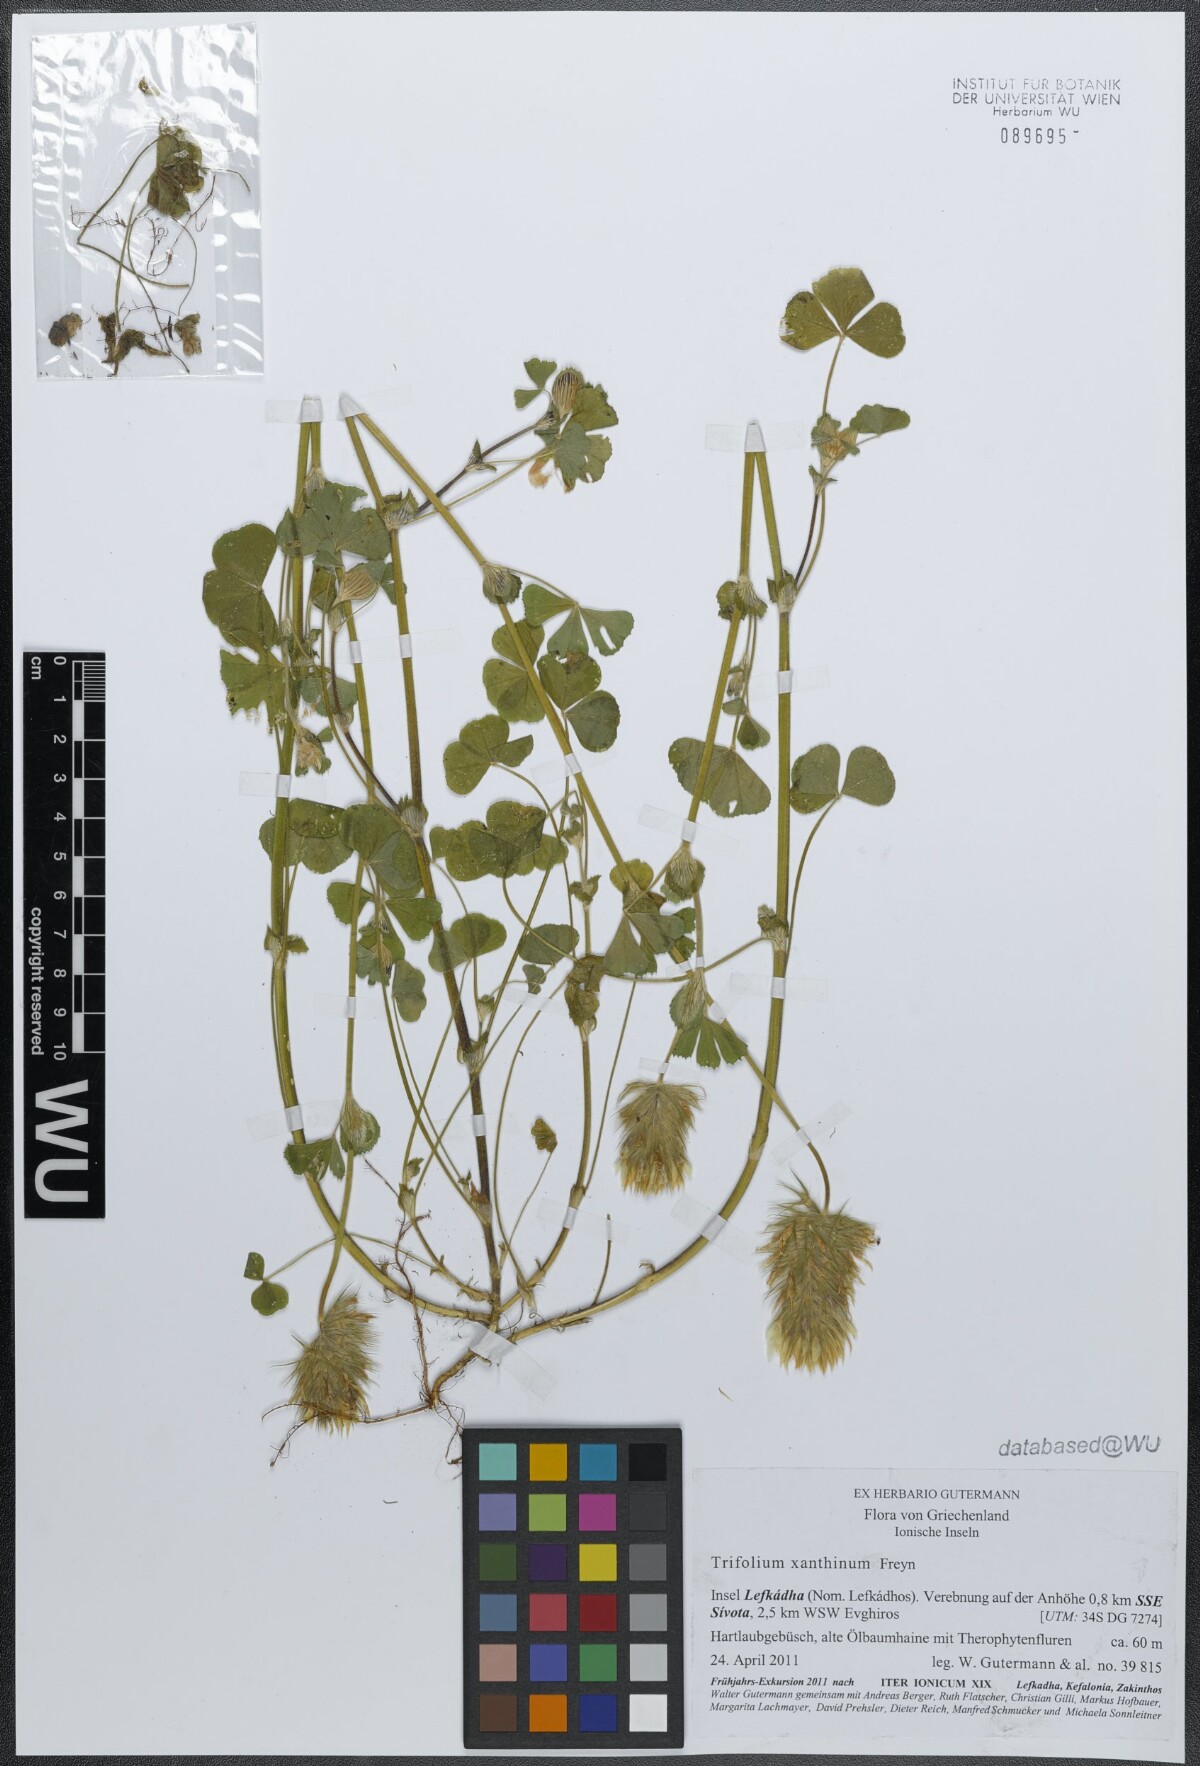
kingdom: Plantae
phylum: Tracheophyta
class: Magnoliopsida
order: Fabales
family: Fabaceae
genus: Trifolium
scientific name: Trifolium xanthinum
